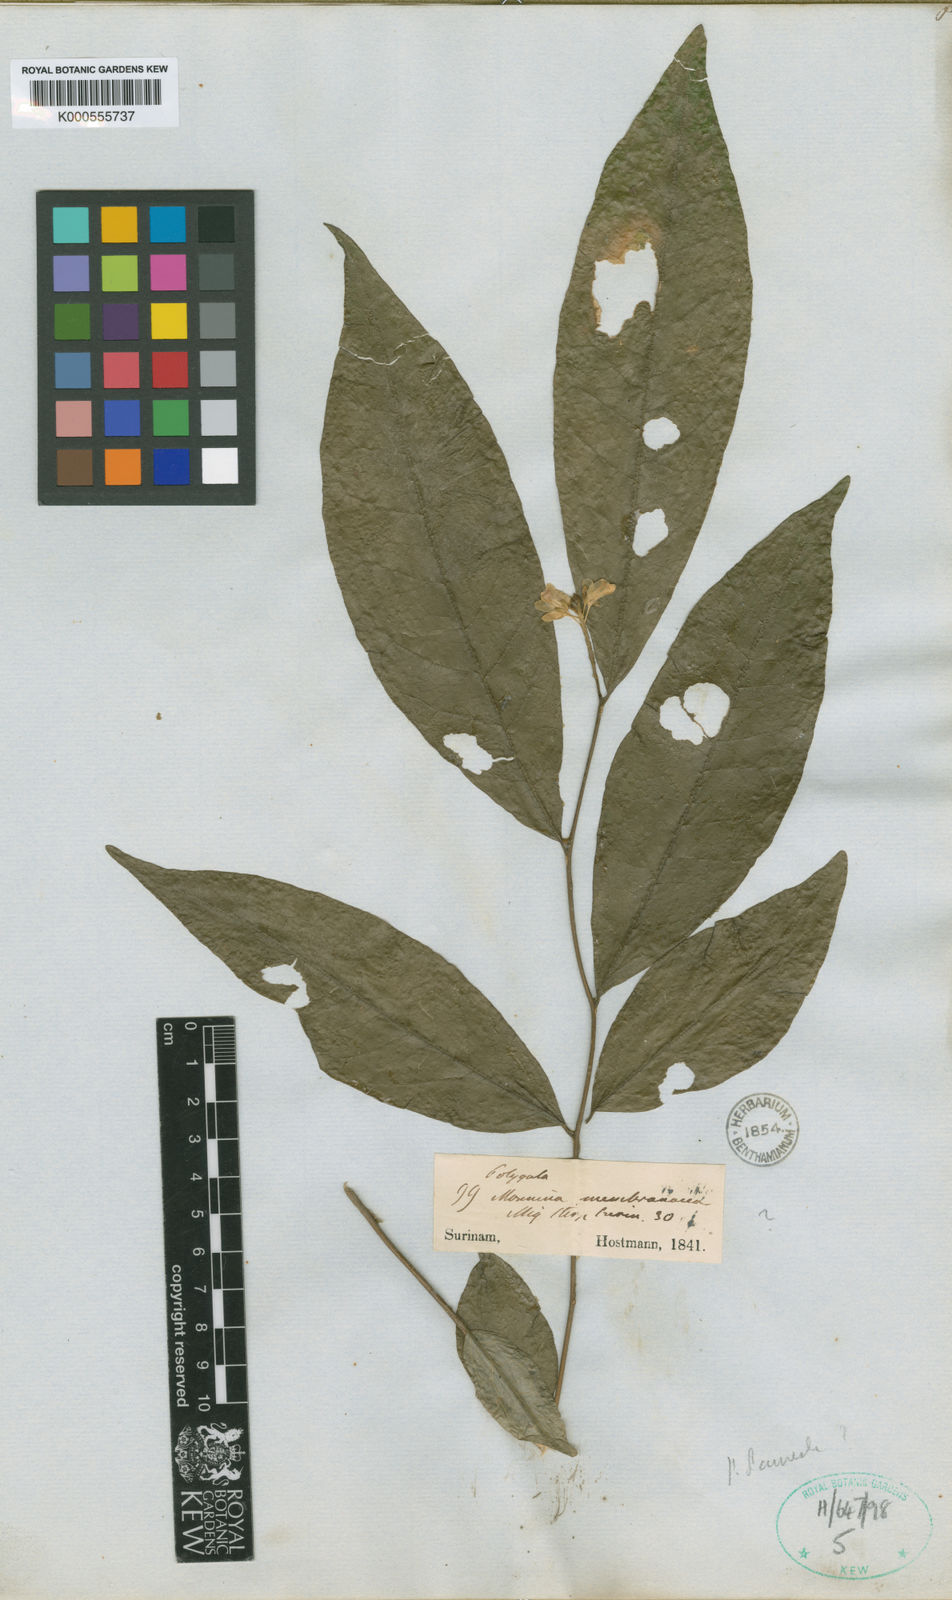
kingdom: Plantae
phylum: Tracheophyta
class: Magnoliopsida
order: Fabales
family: Polygalaceae
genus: Polygala
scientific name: Polygala membranacea
